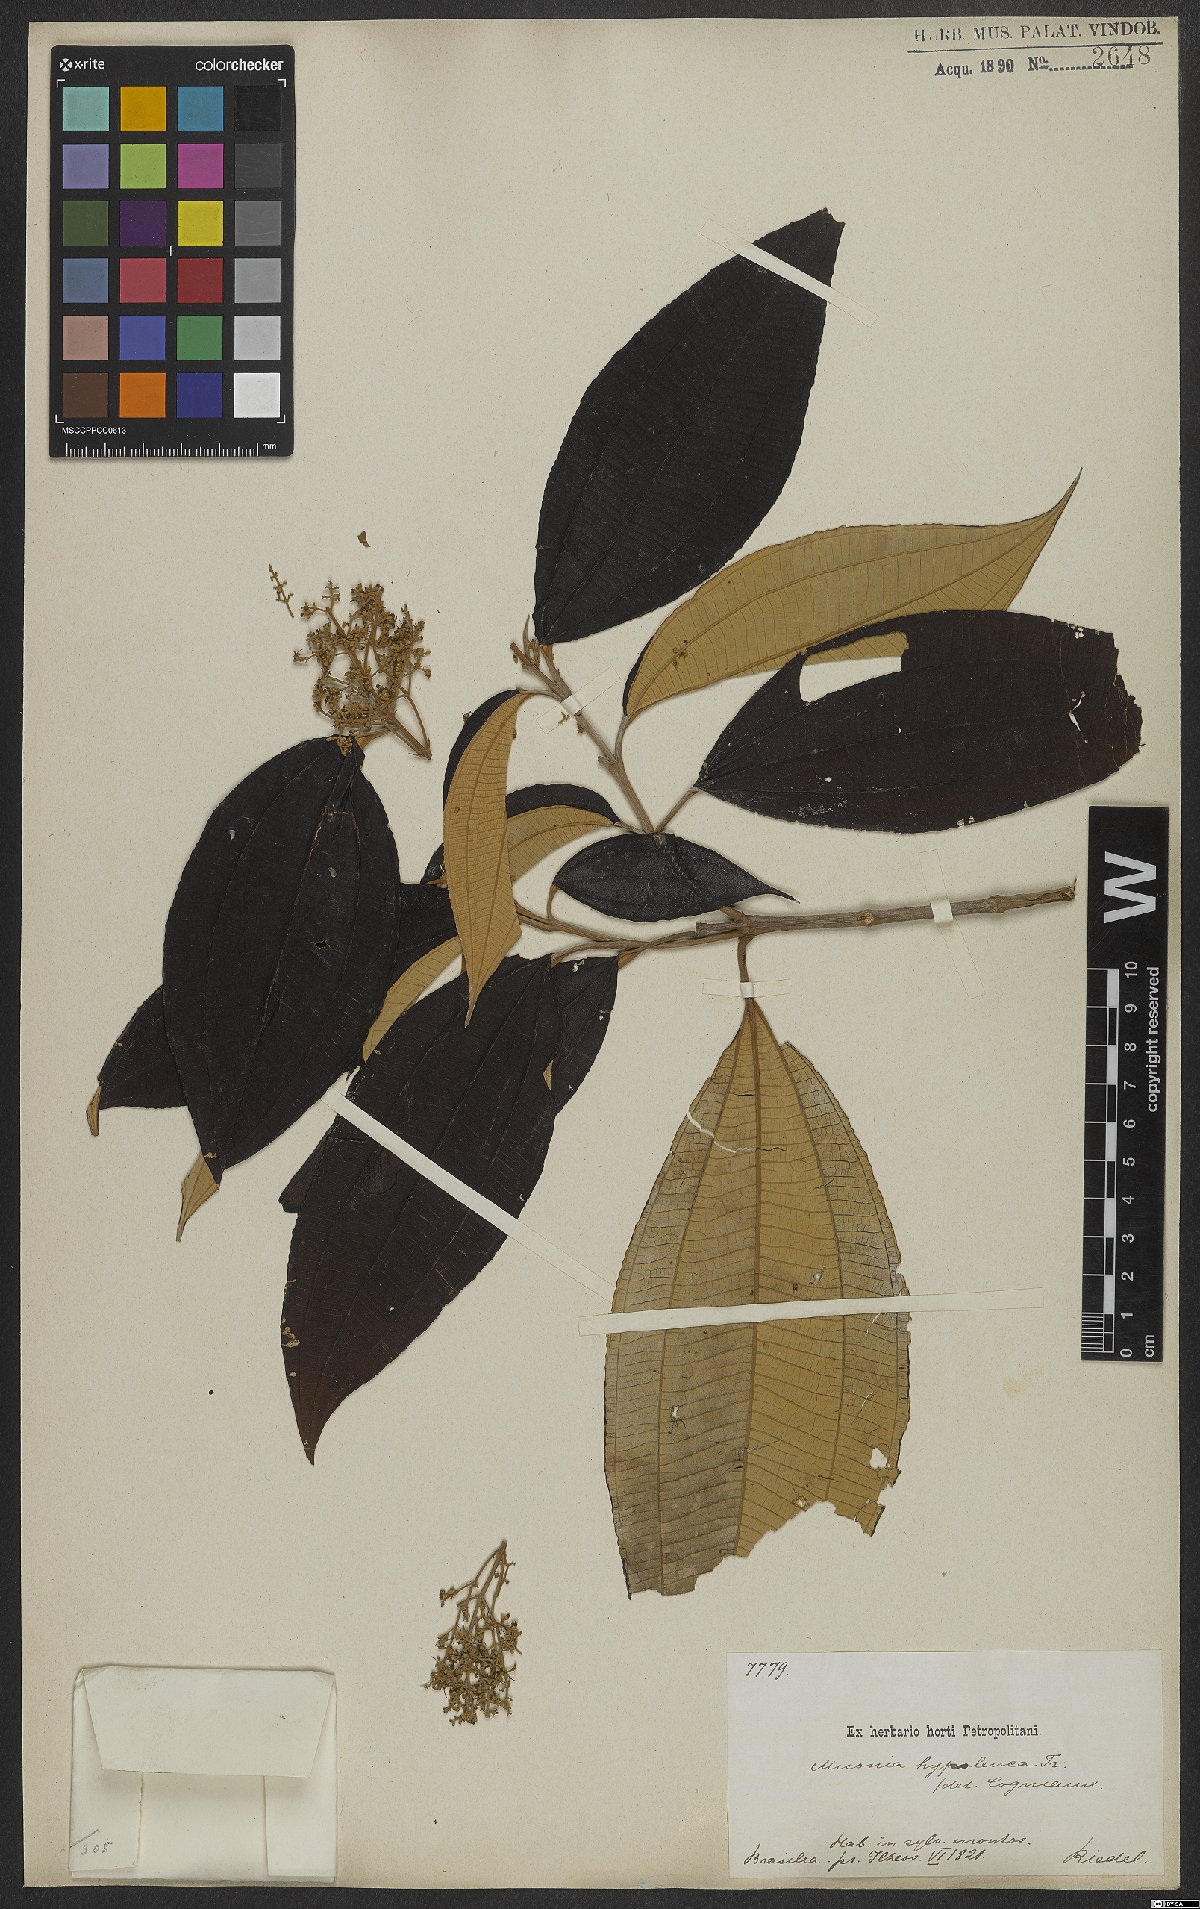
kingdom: Plantae
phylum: Tracheophyta
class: Magnoliopsida
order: Myrtales
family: Melastomataceae
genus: Miconia
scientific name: Miconia hypoleuca
